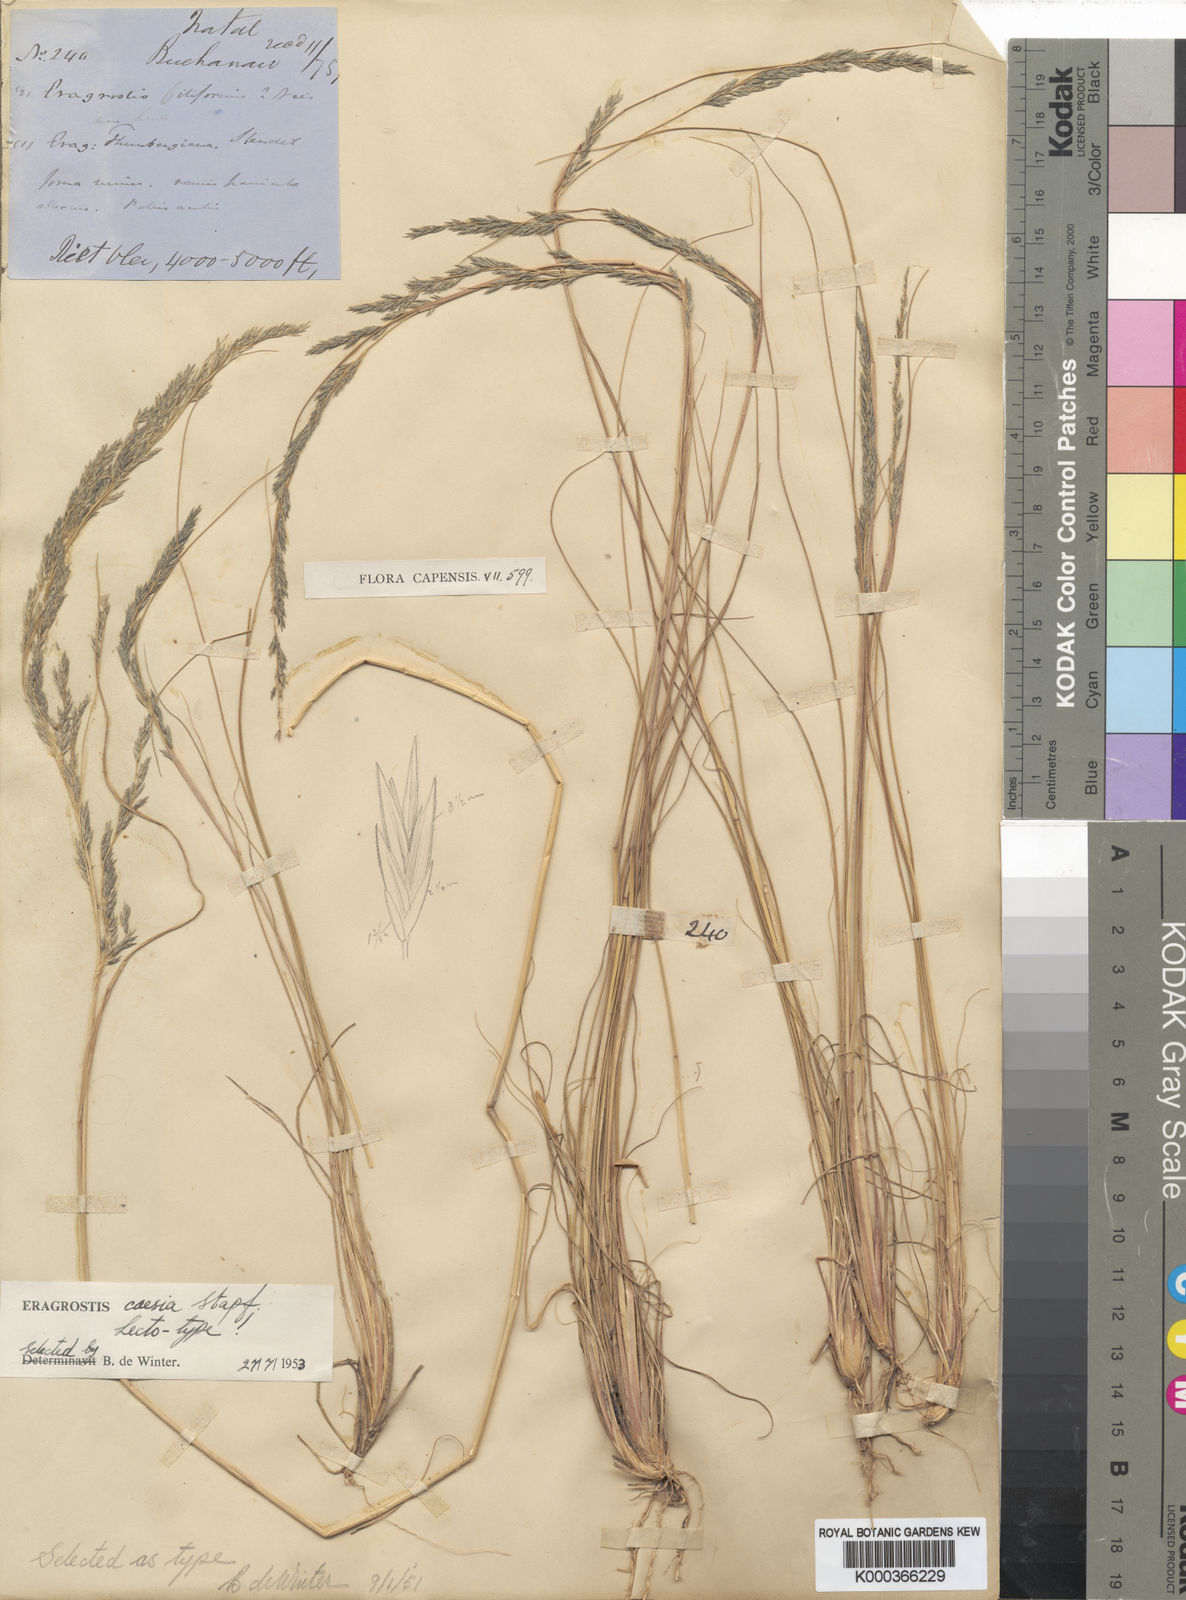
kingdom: Plantae
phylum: Tracheophyta
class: Liliopsida
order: Poales
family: Poaceae
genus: Eragrostis
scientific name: Eragrostis caesia
